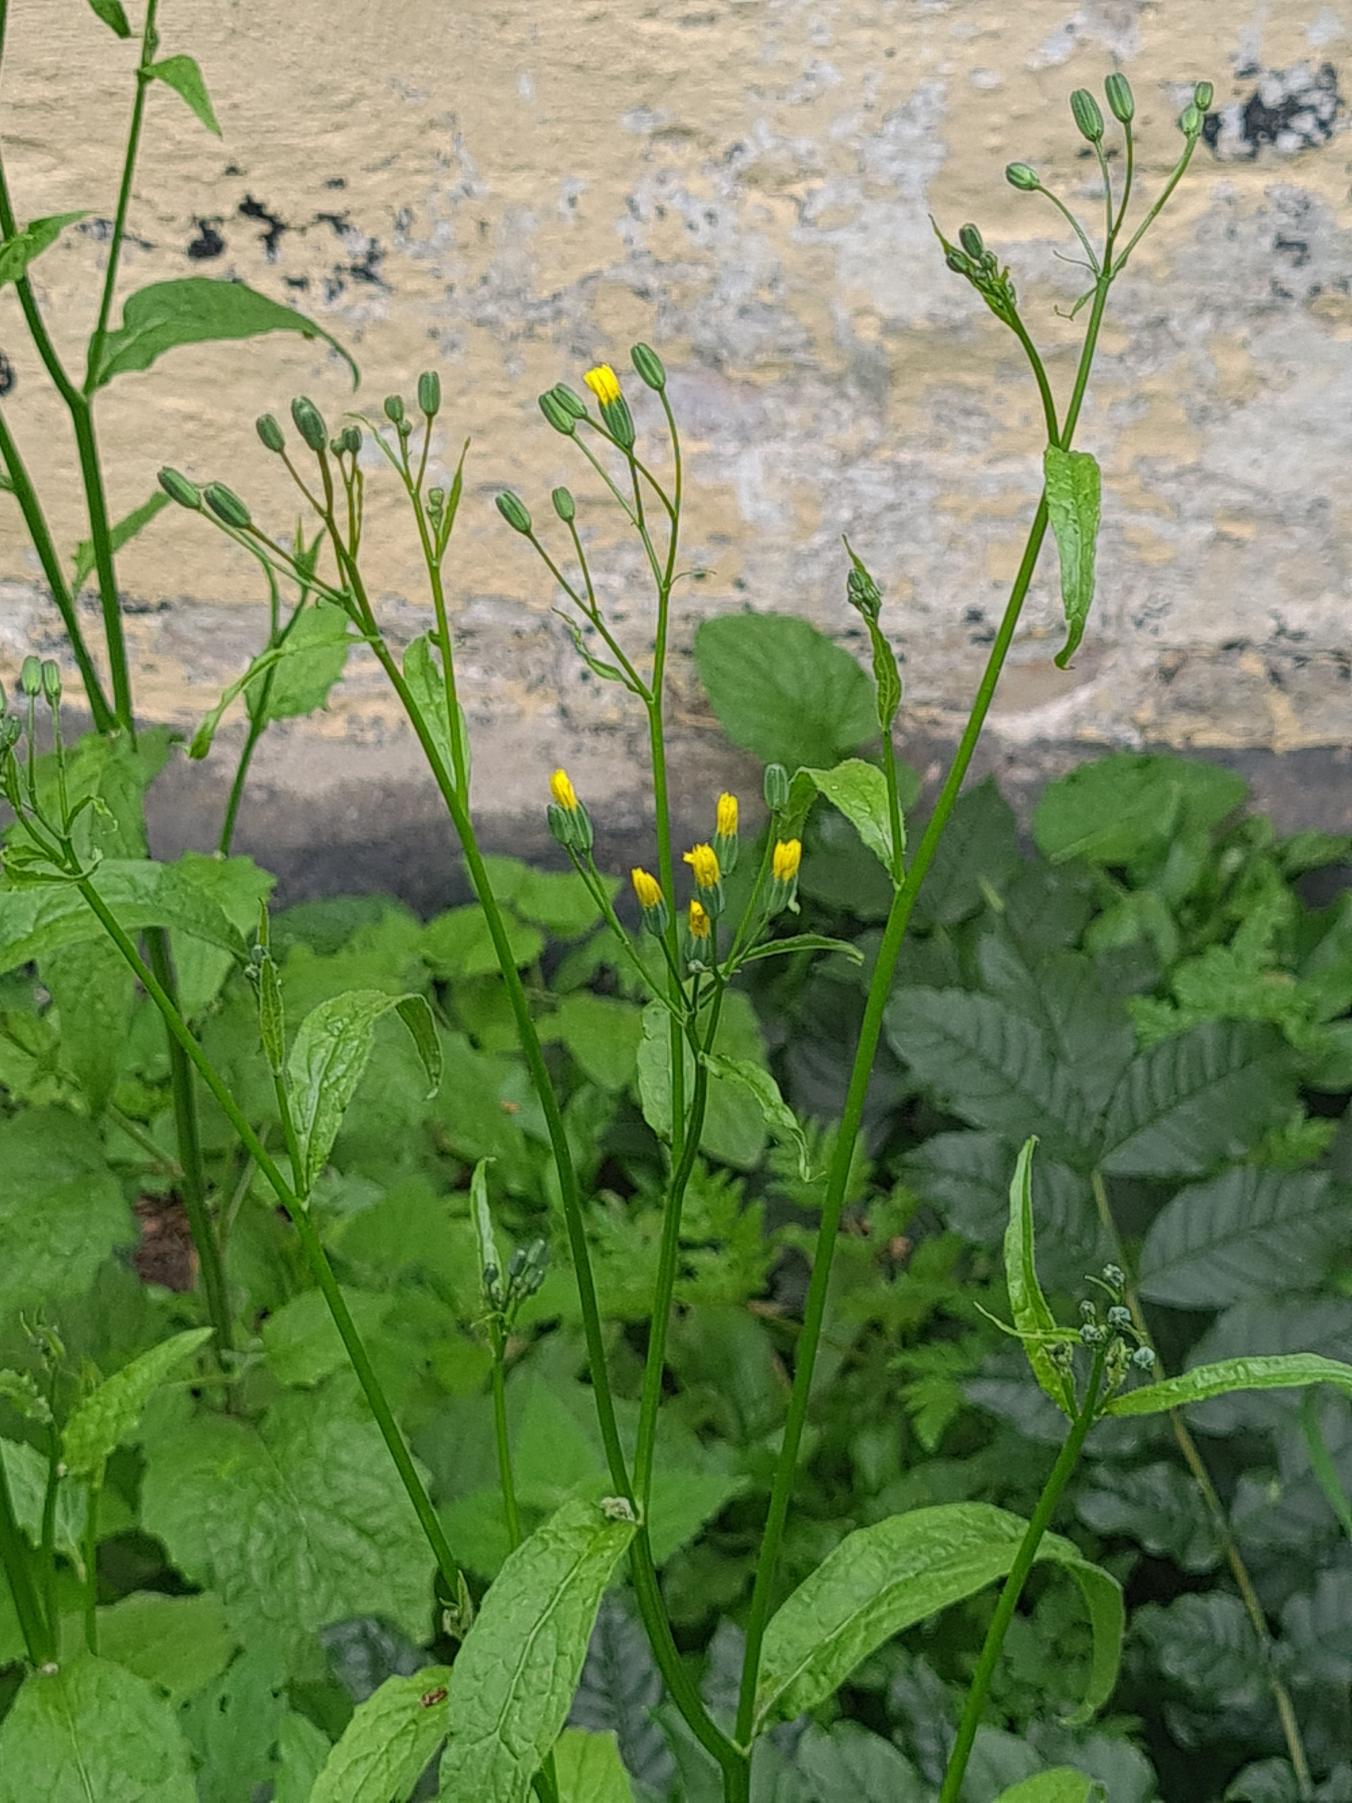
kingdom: Plantae
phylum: Tracheophyta
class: Magnoliopsida
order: Asterales
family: Asteraceae
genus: Lapsana
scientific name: Lapsana communis
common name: Haremad
